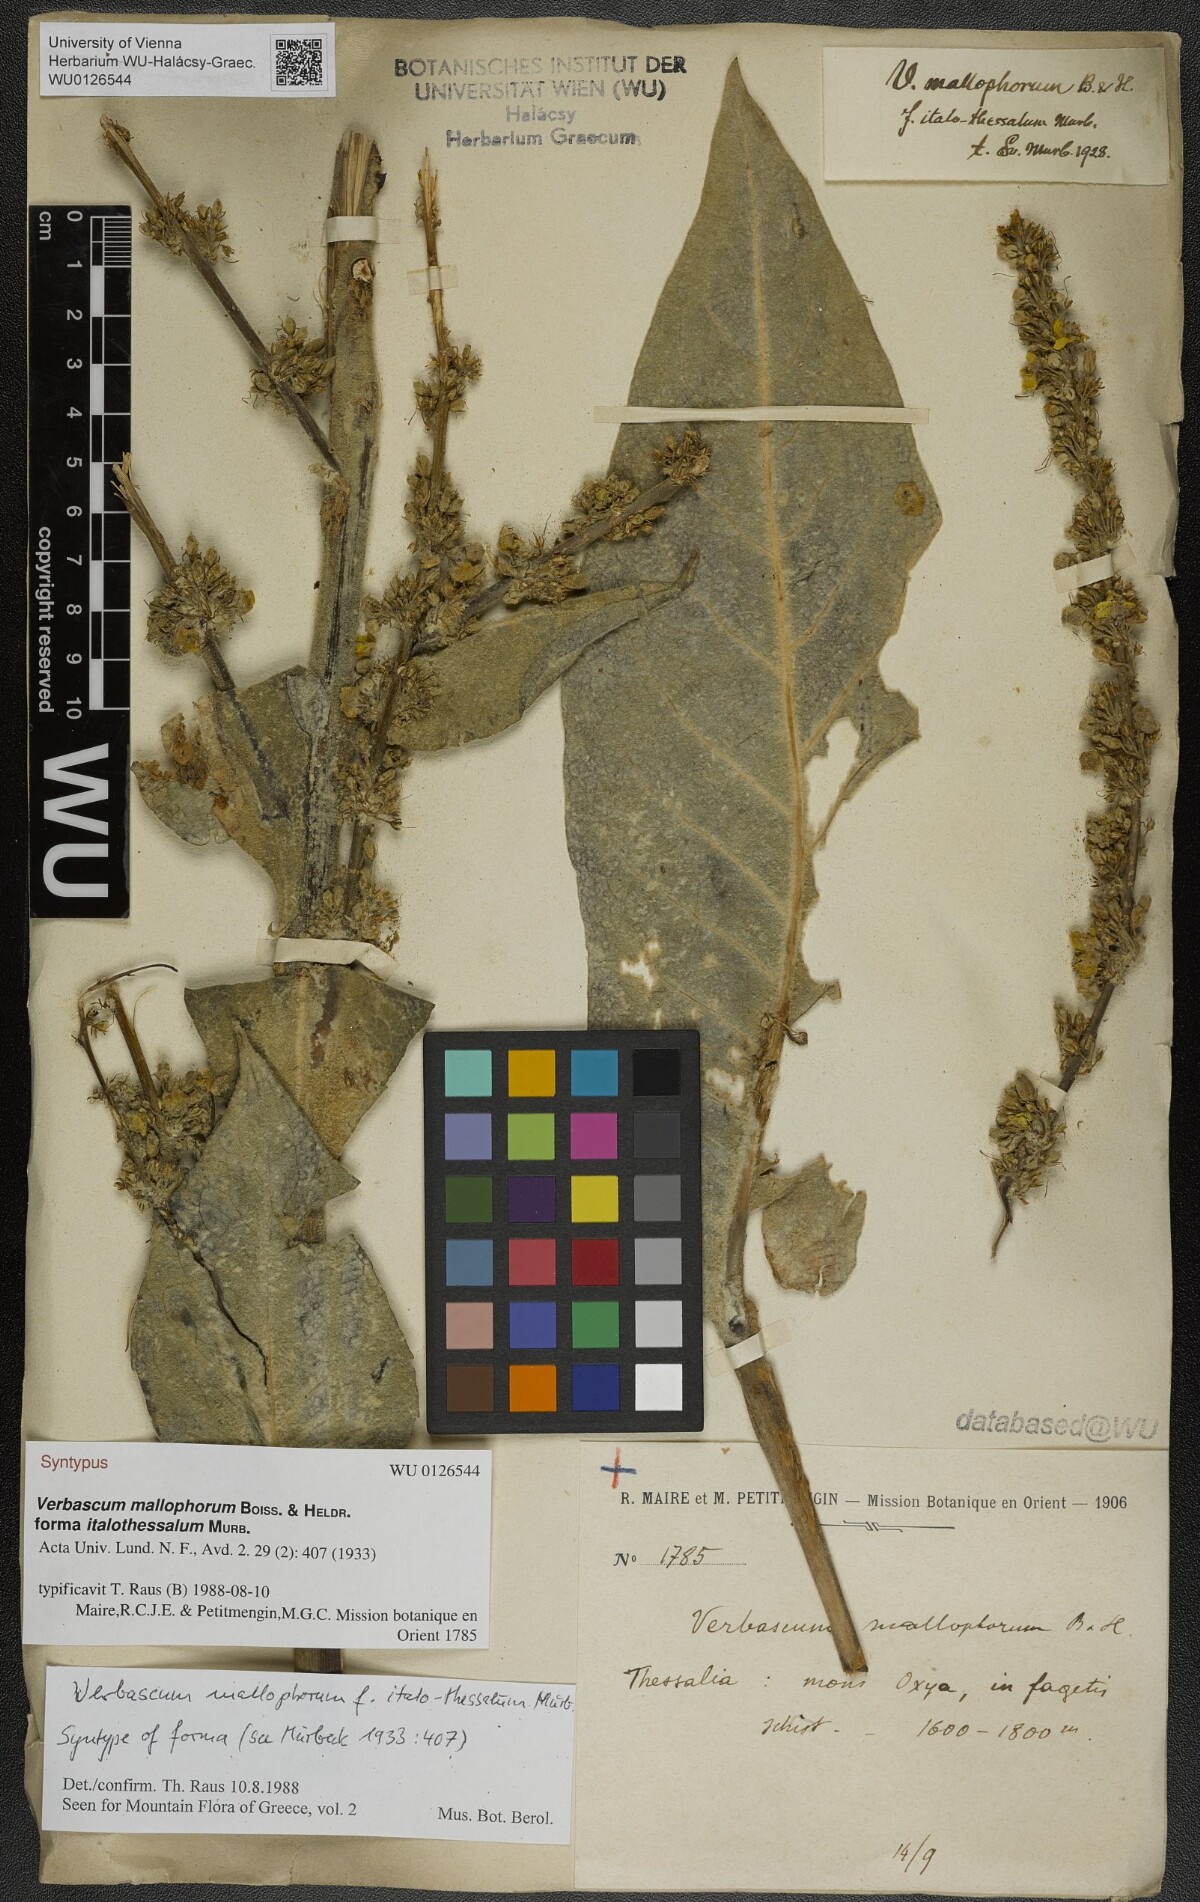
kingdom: Plantae
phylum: Tracheophyta
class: Magnoliopsida
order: Lamiales
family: Scrophulariaceae
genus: Verbascum
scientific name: Verbascum mallophorum
